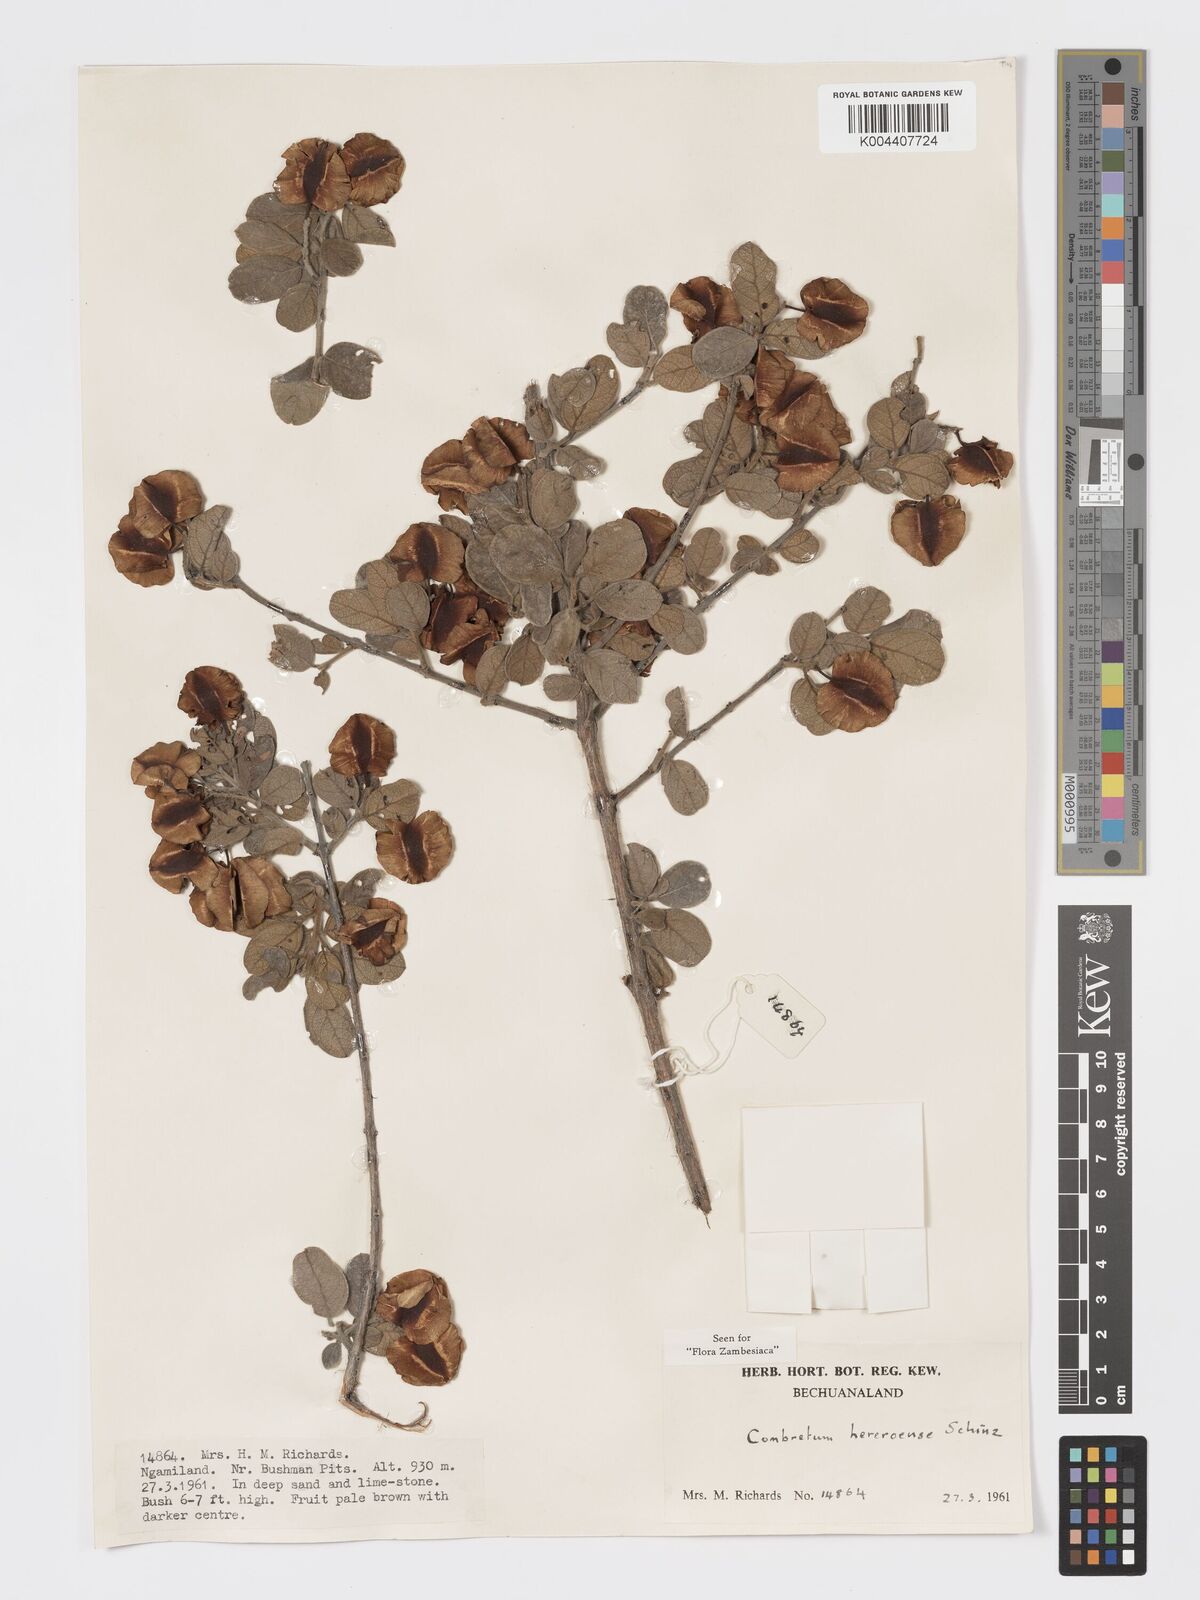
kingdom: Plantae
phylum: Tracheophyta
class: Magnoliopsida
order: Myrtales
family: Combretaceae
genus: Combretum
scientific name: Combretum hereroense
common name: Russet bushwillow
